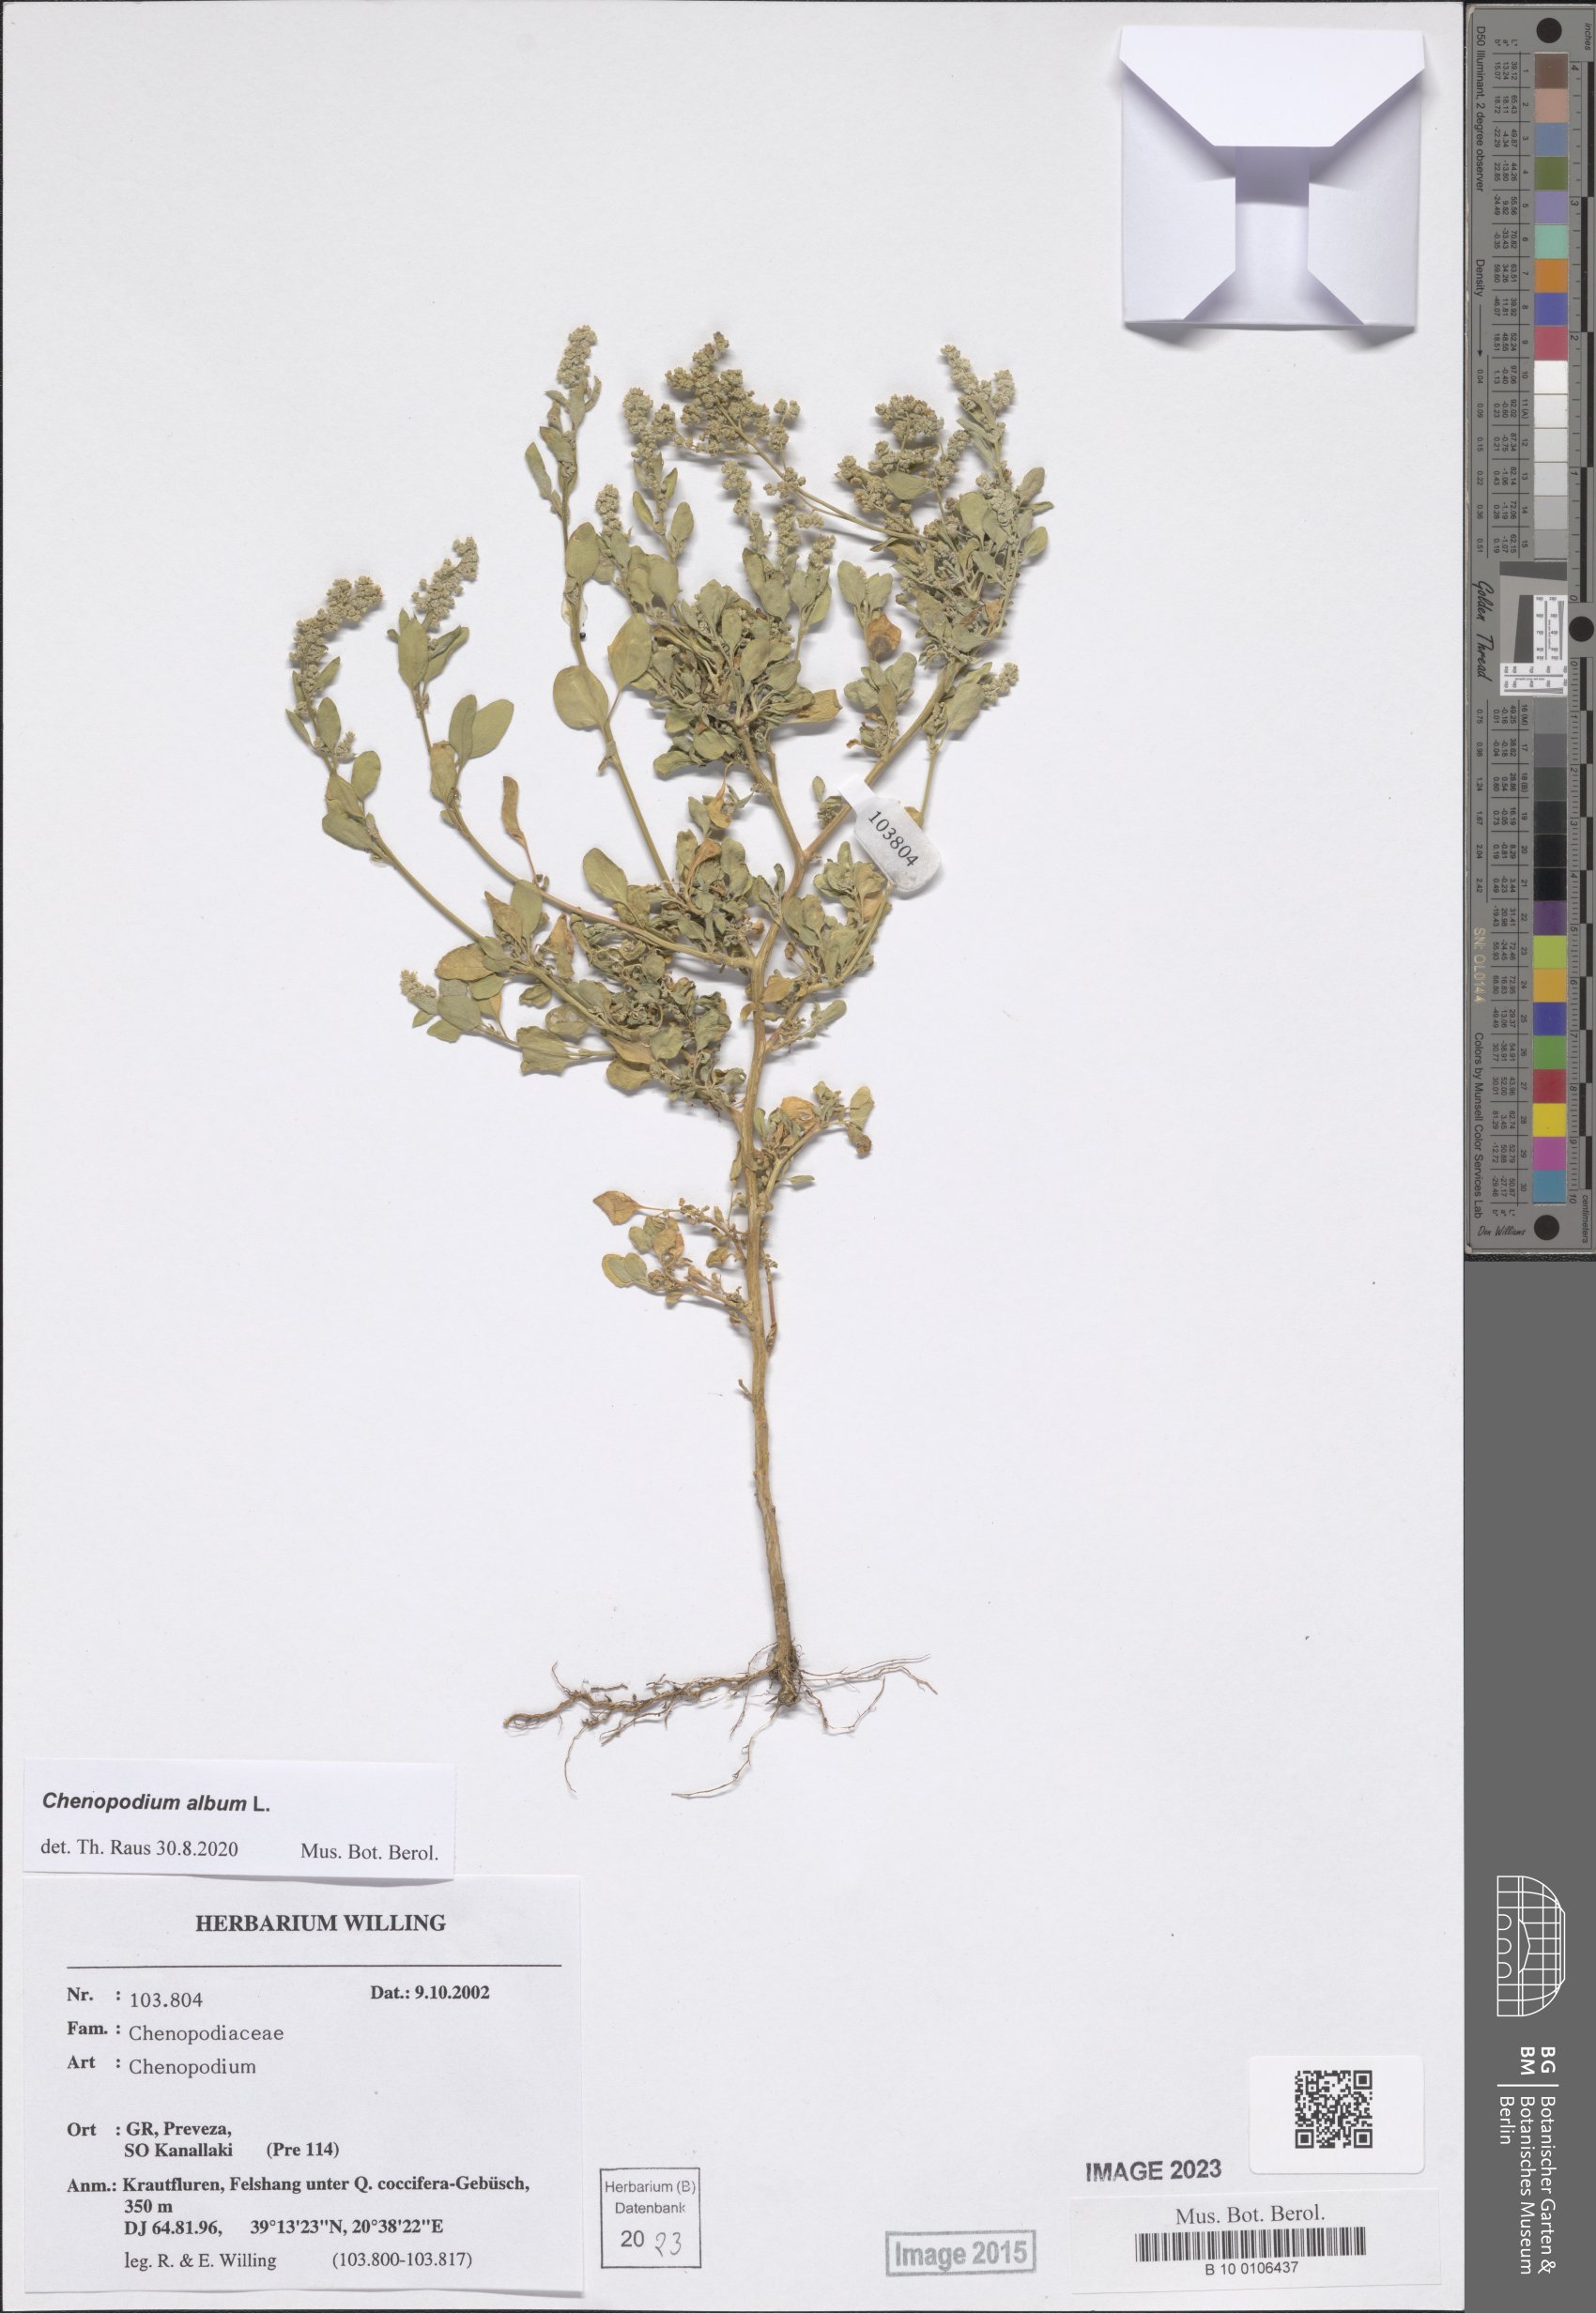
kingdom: Plantae
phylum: Tracheophyta
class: Magnoliopsida
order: Caryophyllales
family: Amaranthaceae
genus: Chenopodium
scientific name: Chenopodium album
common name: Fat-hen
